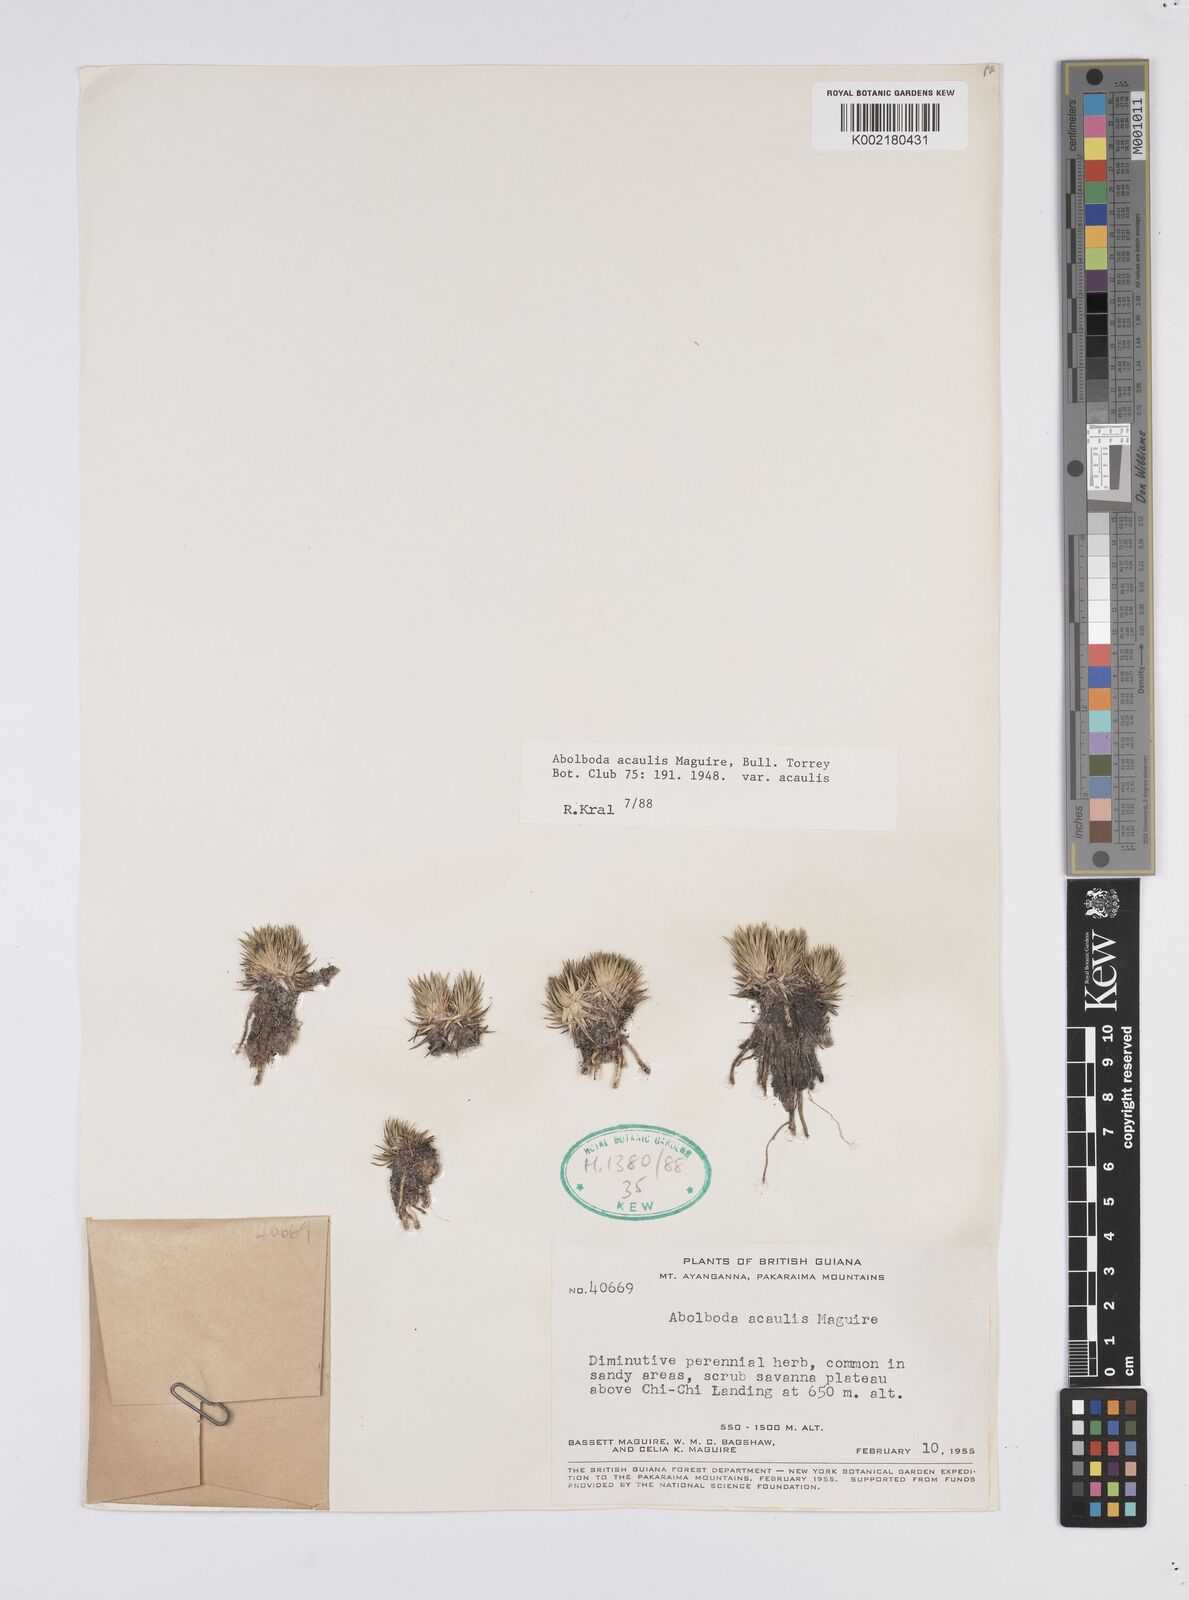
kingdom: Plantae
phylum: Tracheophyta
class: Liliopsida
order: Poales
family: Xyridaceae
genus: Abolboda
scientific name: Abolboda acaulis
